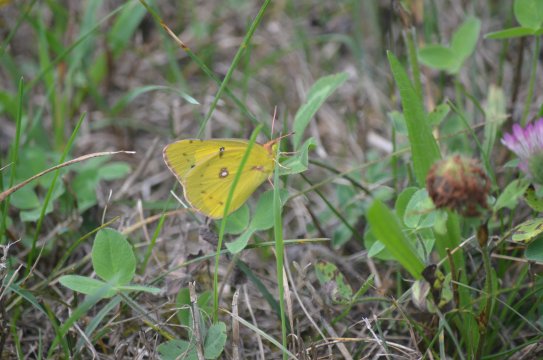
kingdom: Animalia
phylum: Arthropoda
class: Insecta
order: Lepidoptera
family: Pieridae
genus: Colias
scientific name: Colias
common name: Clouded Yellows
